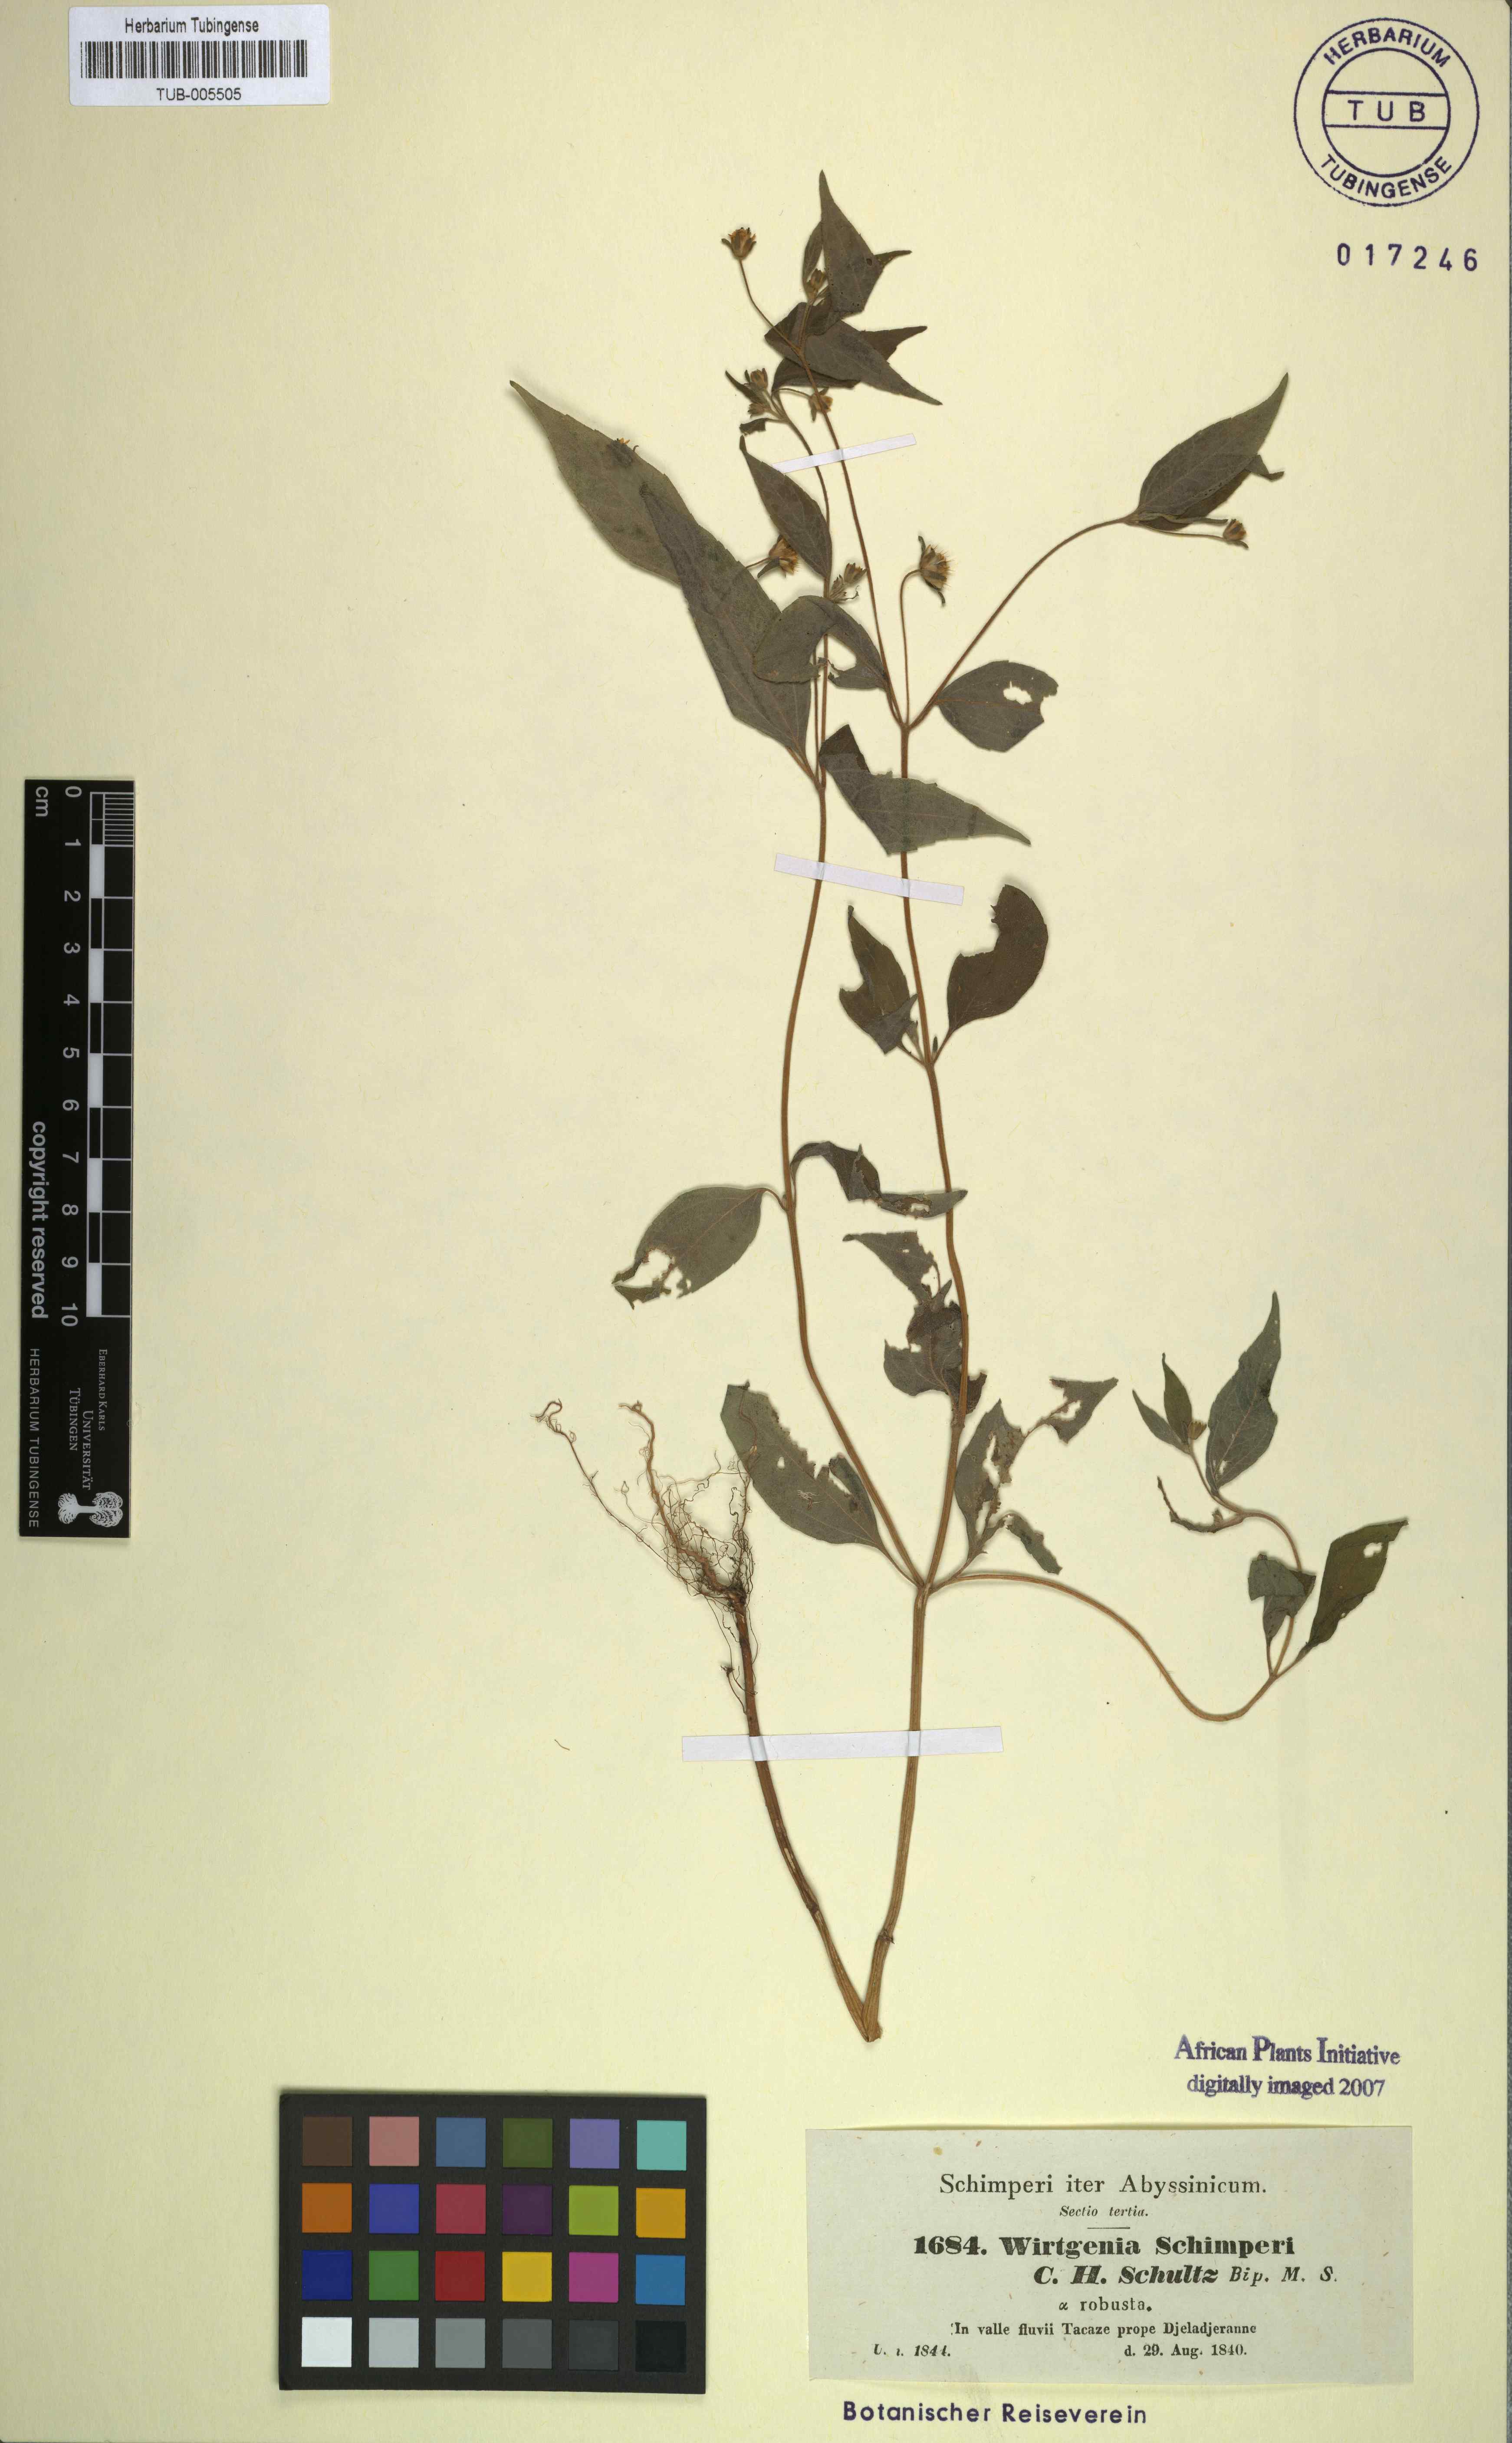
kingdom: Plantae
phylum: Tracheophyta
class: Magnoliopsida
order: Asterales
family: Asteraceae
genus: Aspilia
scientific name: Aspilia helianthoides
